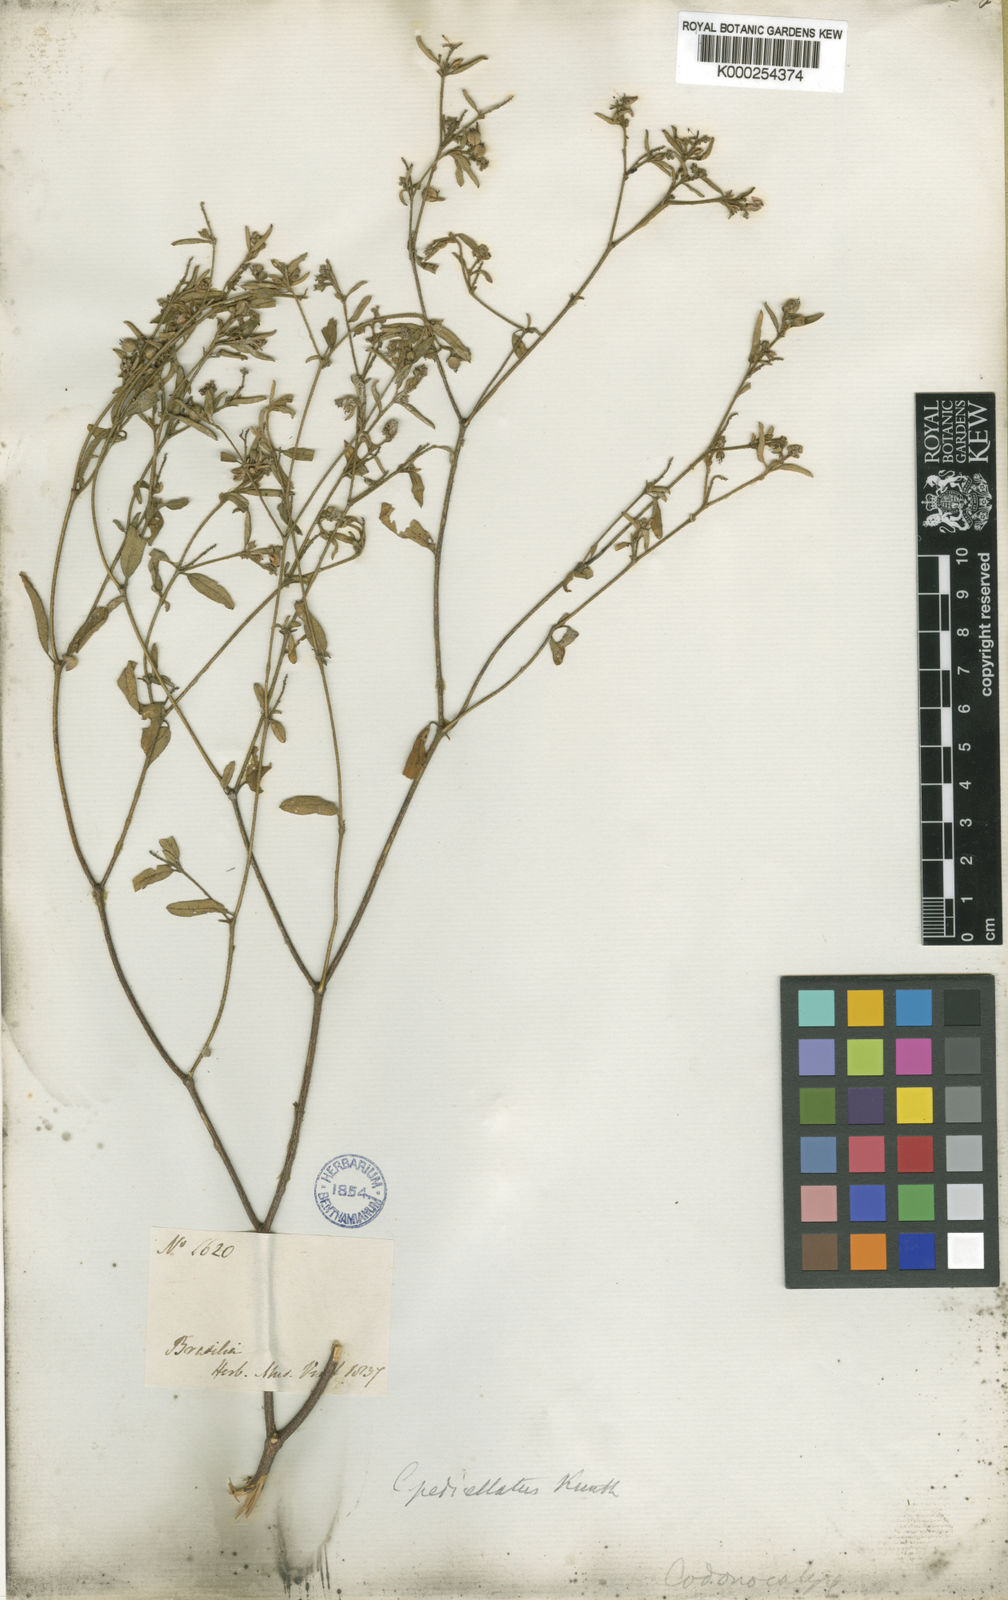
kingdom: Plantae
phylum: Tracheophyta
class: Magnoliopsida
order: Malpighiales
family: Euphorbiaceae
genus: Croton
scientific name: Croton pedicellatus
